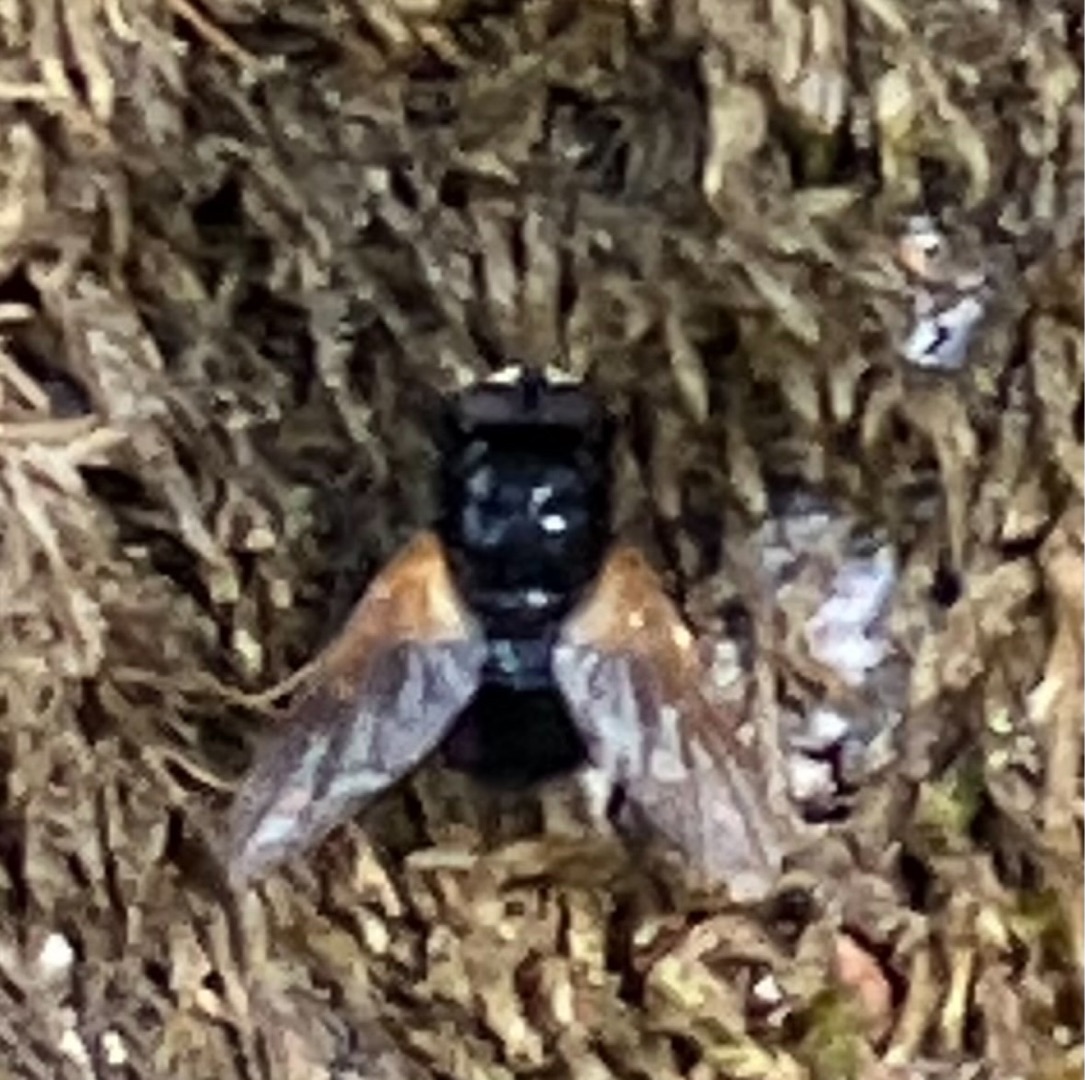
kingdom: Animalia
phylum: Arthropoda
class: Insecta
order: Diptera
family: Muscidae
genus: Mesembrina
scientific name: Mesembrina meridiana
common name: Gulvinget flue
